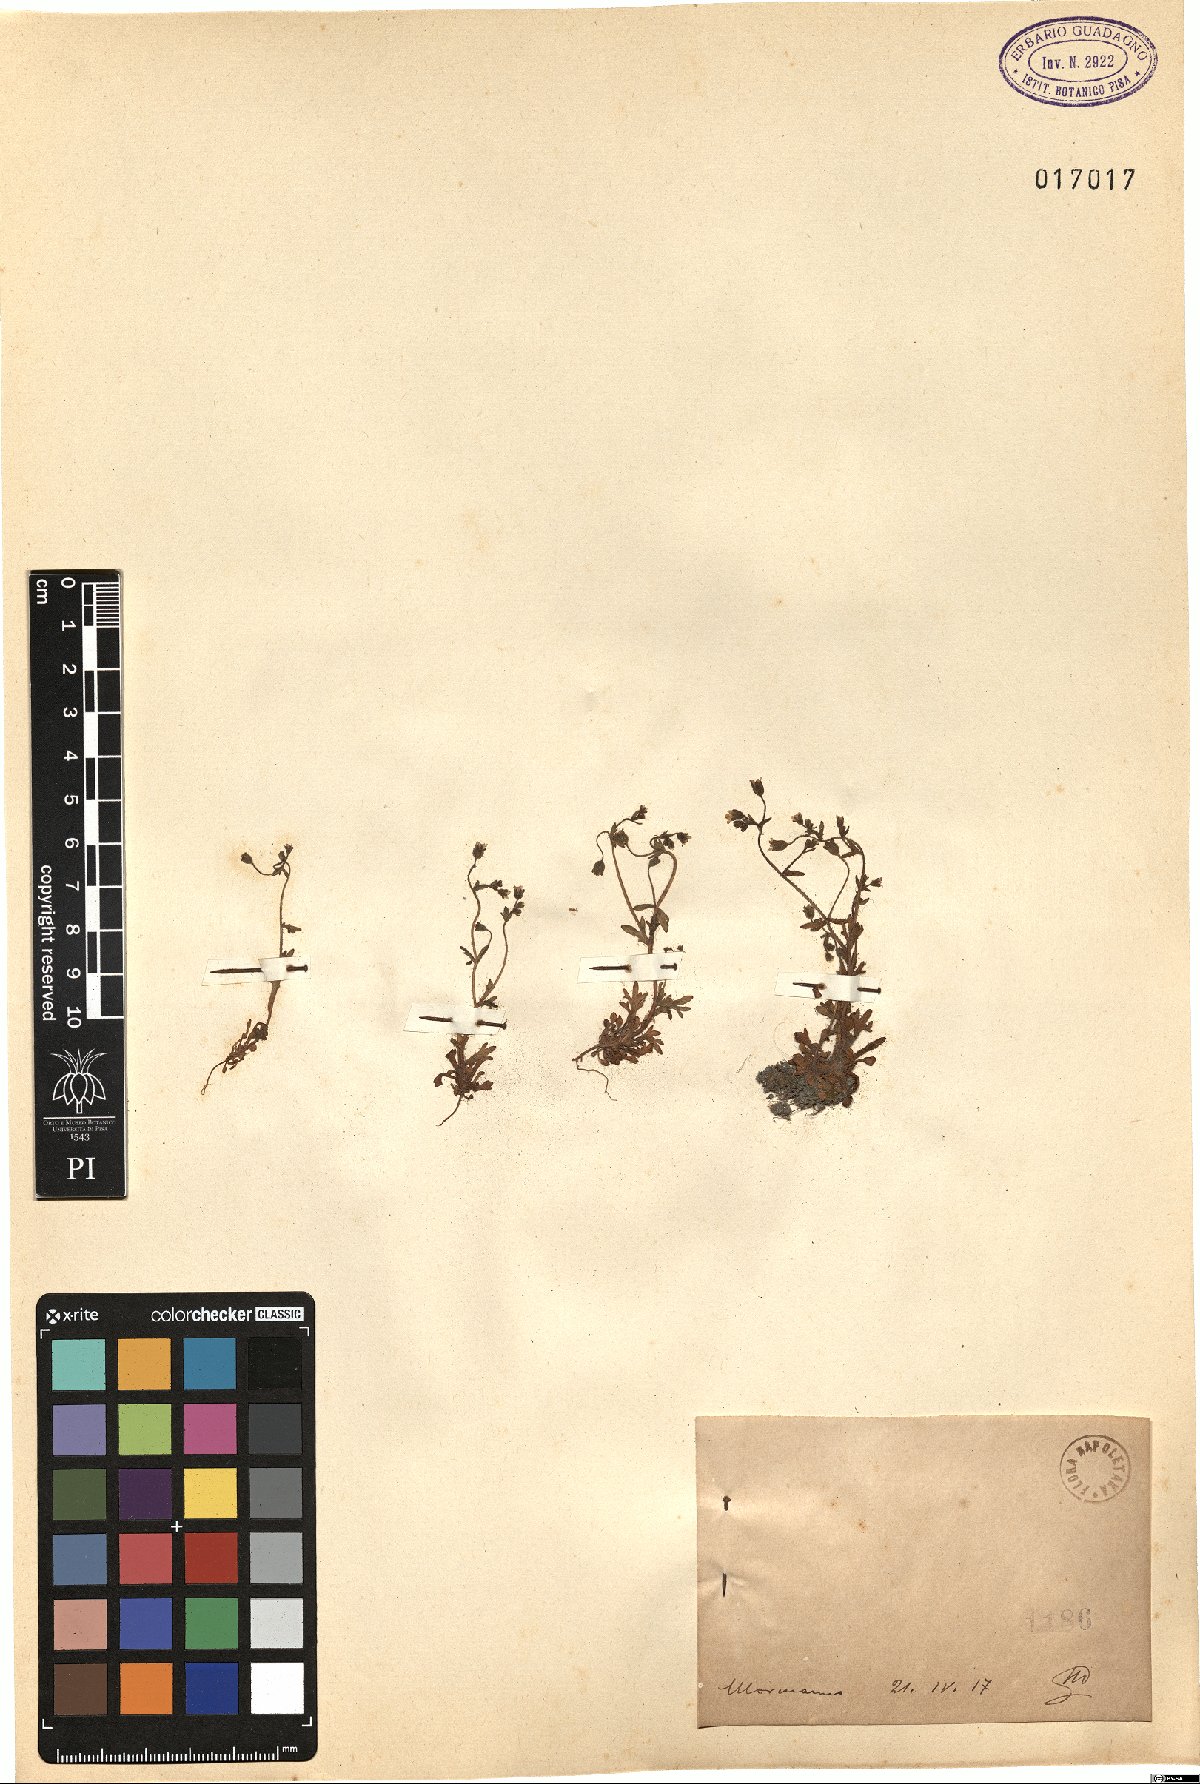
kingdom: Plantae
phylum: Tracheophyta
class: Magnoliopsida
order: Saxifragales
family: Saxifragaceae
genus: Saxifraga
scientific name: Saxifraga
